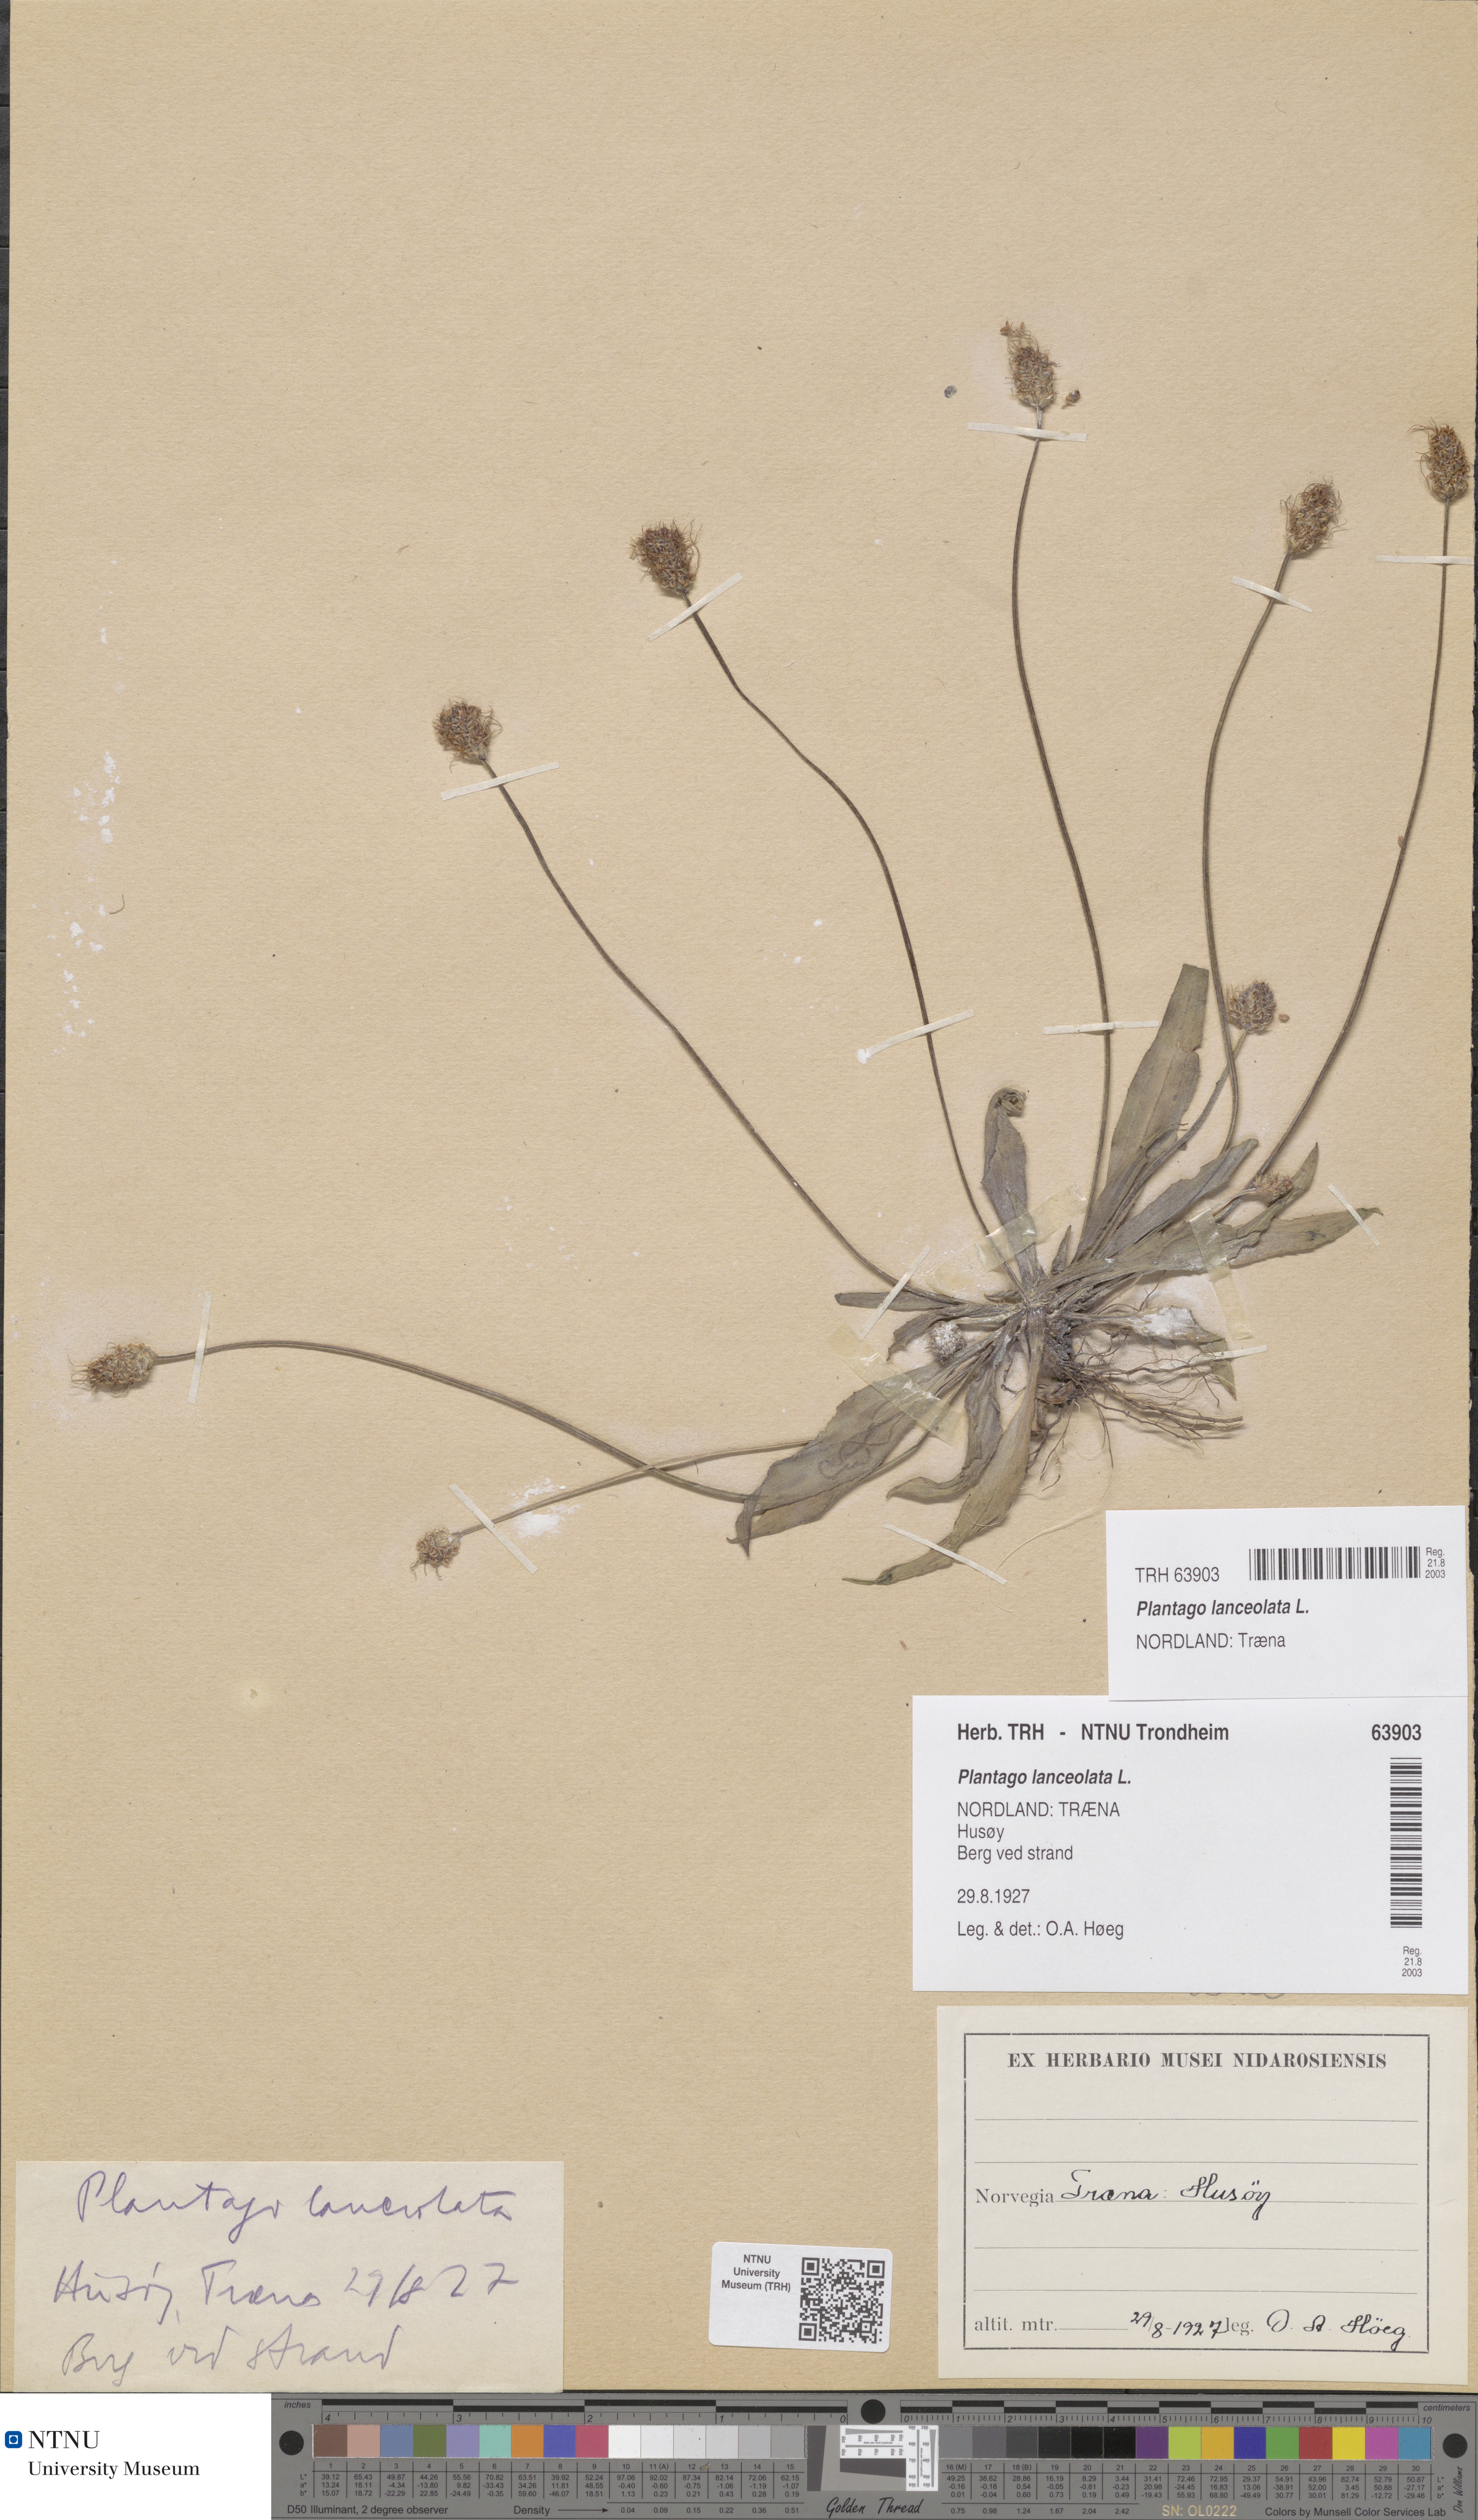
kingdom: Plantae
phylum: Tracheophyta
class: Magnoliopsida
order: Lamiales
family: Plantaginaceae
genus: Plantago
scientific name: Plantago lanceolata
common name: Ribwort plantain
